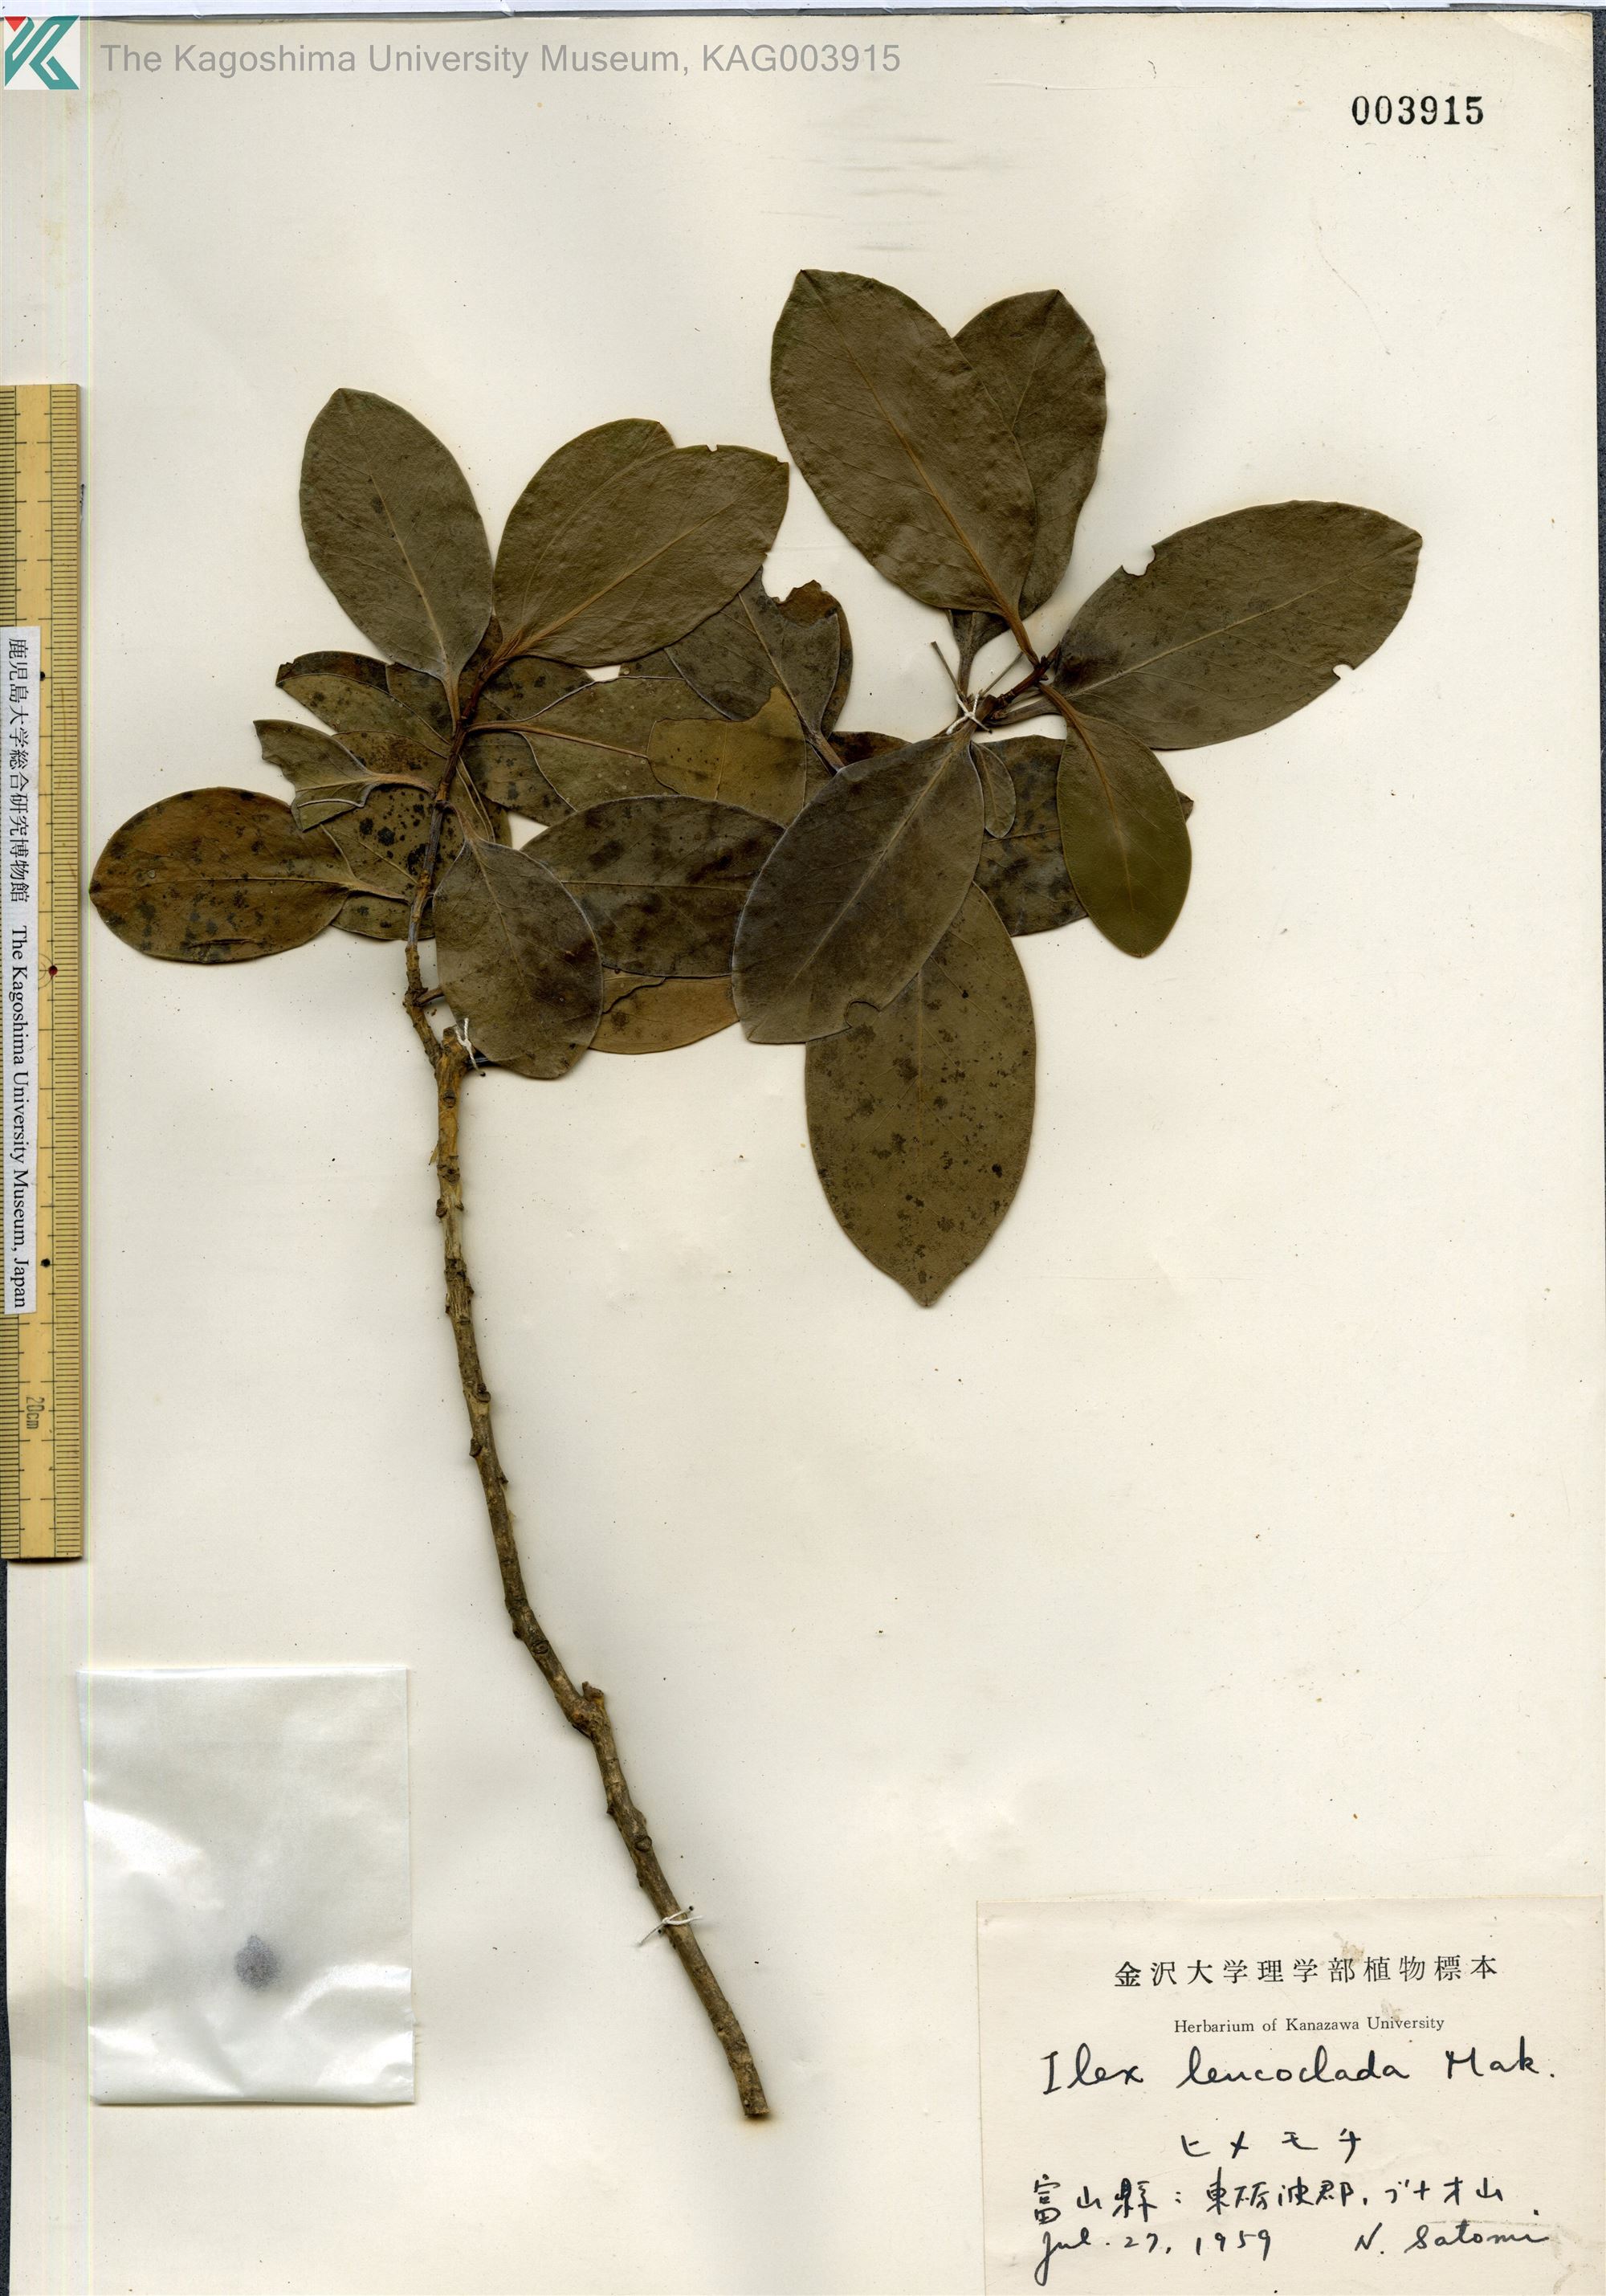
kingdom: Plantae
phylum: Tracheophyta
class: Magnoliopsida
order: Aquifoliales
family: Aquifoliaceae
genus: Ilex
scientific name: Ilex leucoclada
